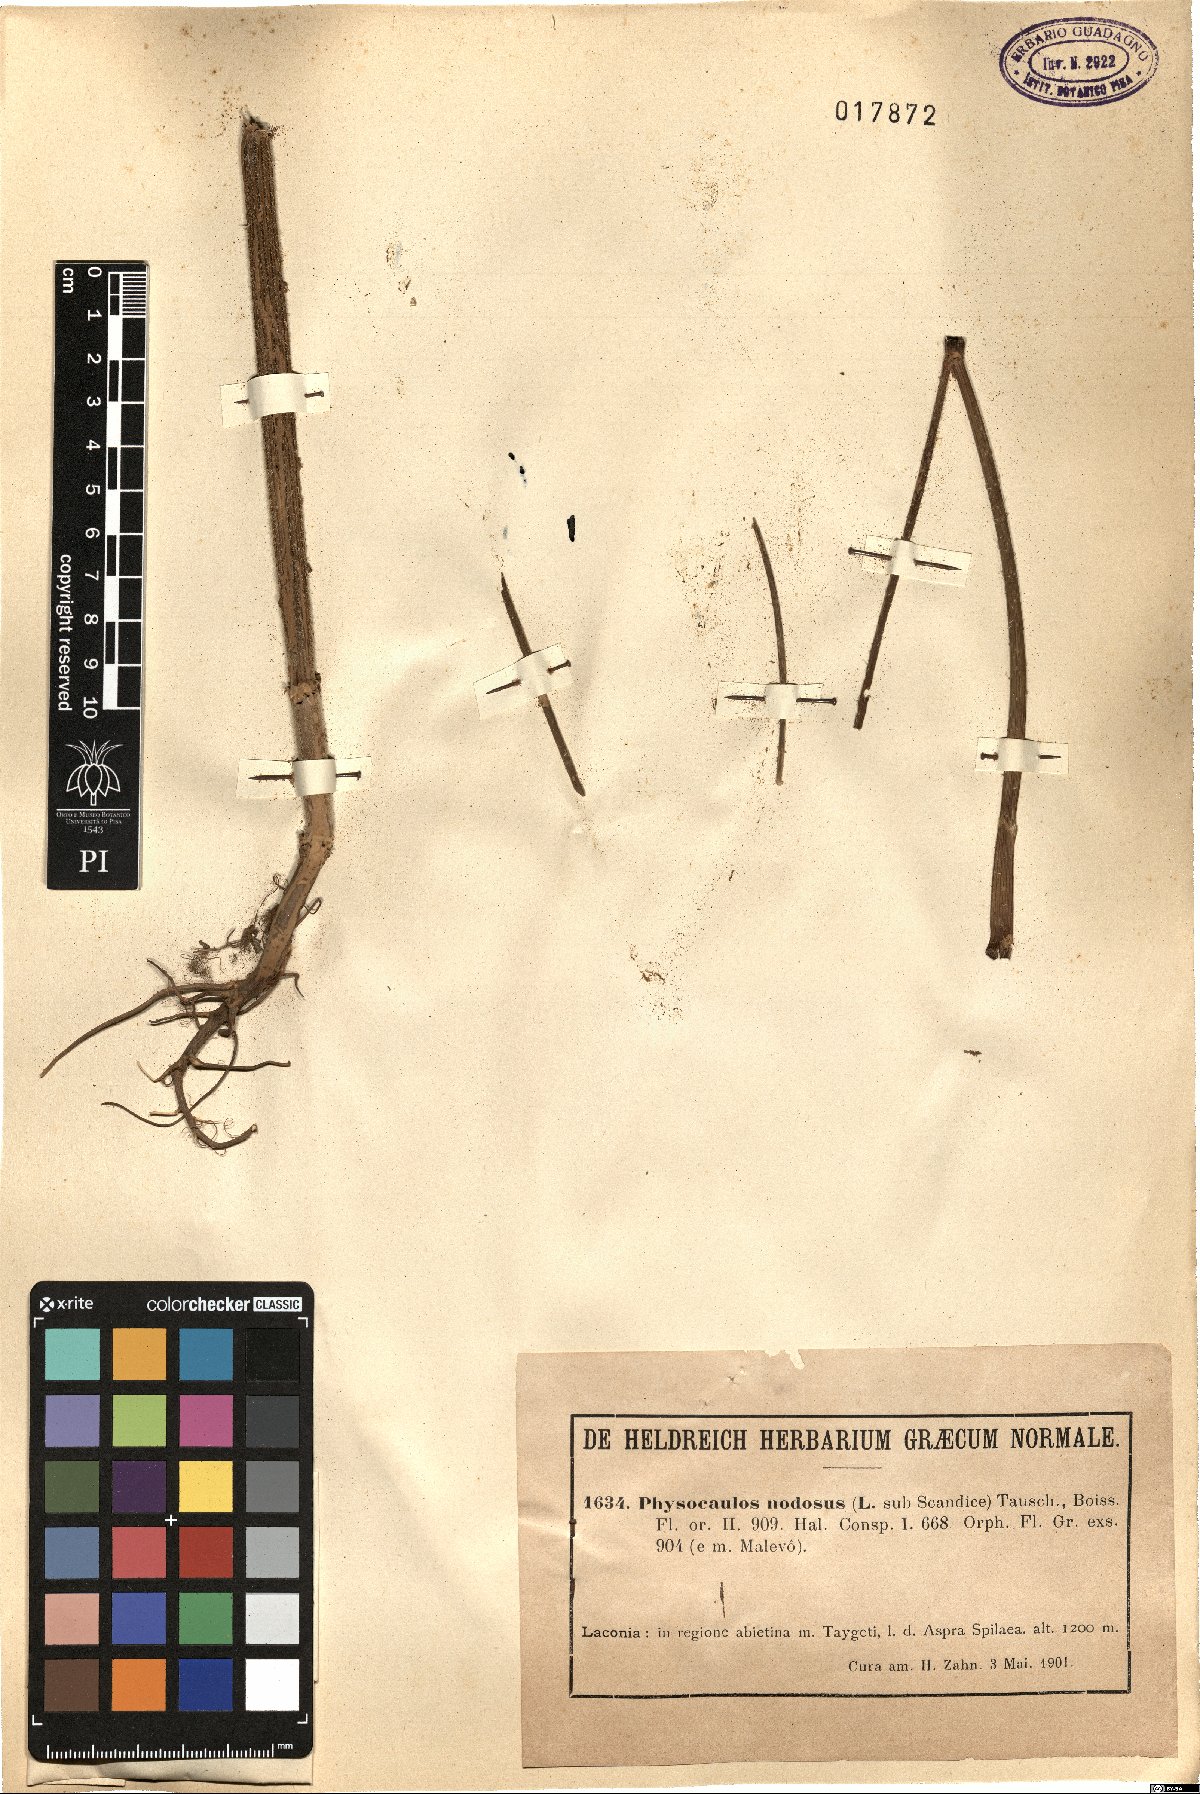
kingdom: Plantae
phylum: Tracheophyta
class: Magnoliopsida
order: Apiales
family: Apiaceae
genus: Chaerophyllum
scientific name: Chaerophyllum nodosum
